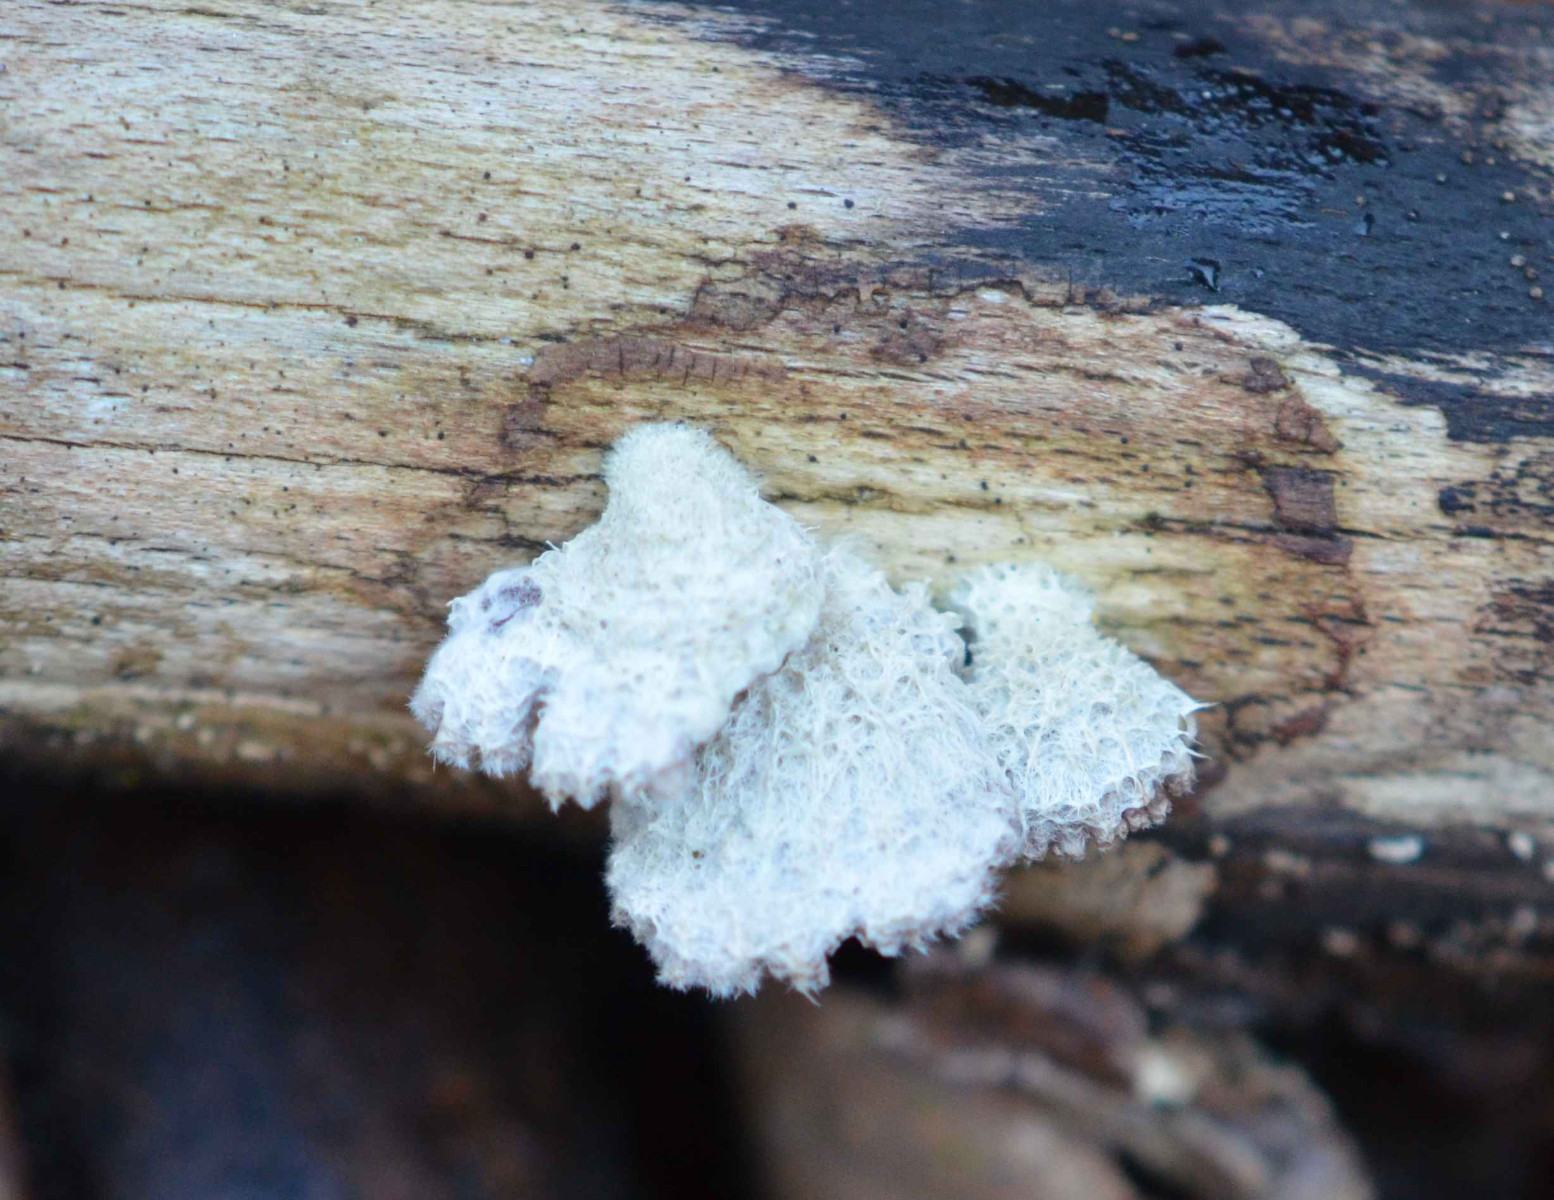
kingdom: Fungi
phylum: Basidiomycota
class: Agaricomycetes
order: Agaricales
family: Schizophyllaceae
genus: Schizophyllum
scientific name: Schizophyllum commune
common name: kløvblad
